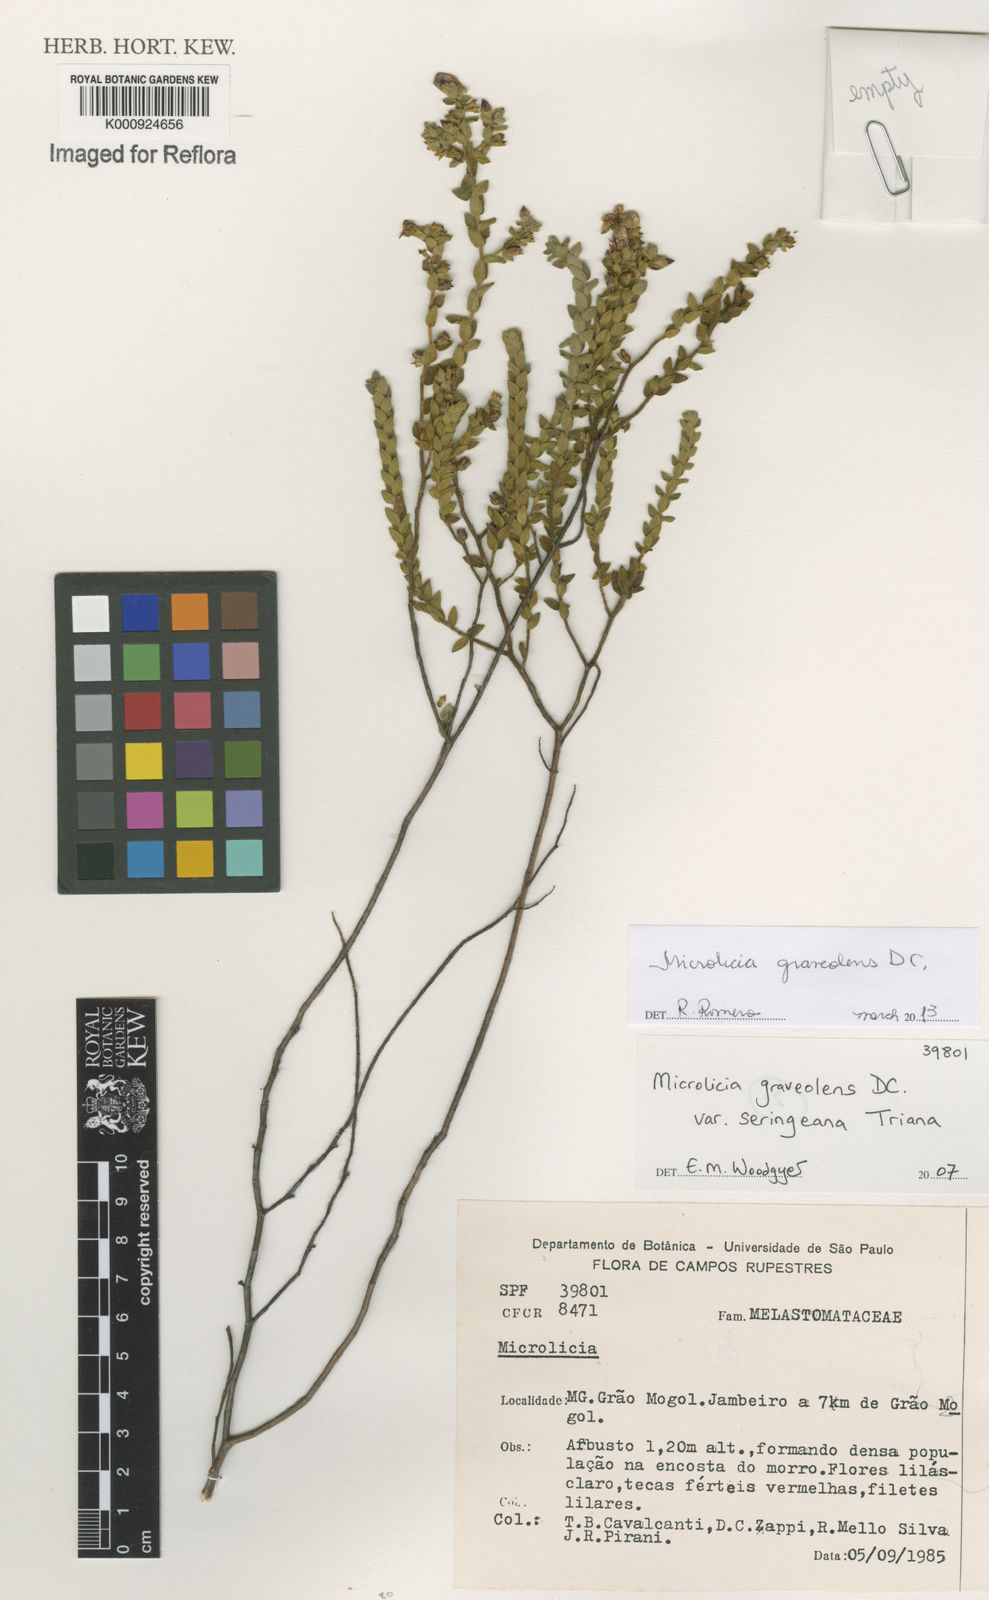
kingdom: Plantae
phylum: Tracheophyta
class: Magnoliopsida
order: Myrtales
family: Melastomataceae
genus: Microlicia
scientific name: Microlicia graveolens
